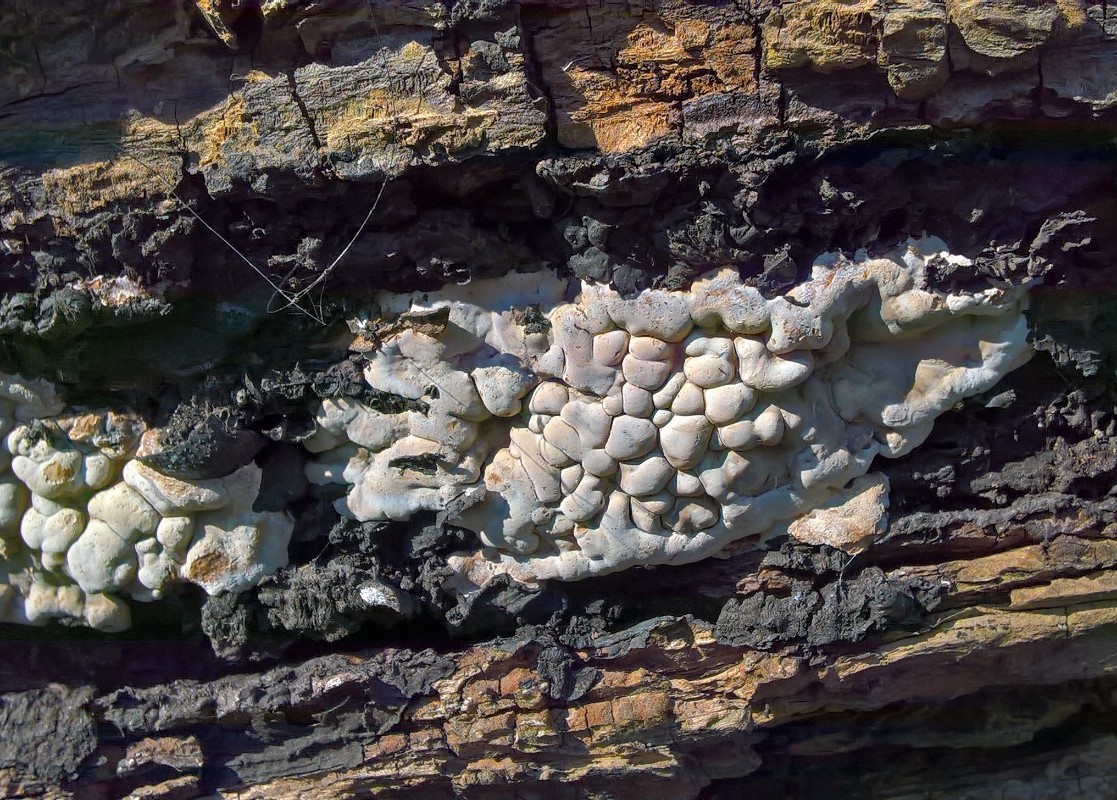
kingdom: Fungi
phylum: Ascomycota
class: Sordariomycetes
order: Xylariales
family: Xylariaceae
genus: Kretzschmaria
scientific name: Kretzschmaria deusta
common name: stor kulsvamp
